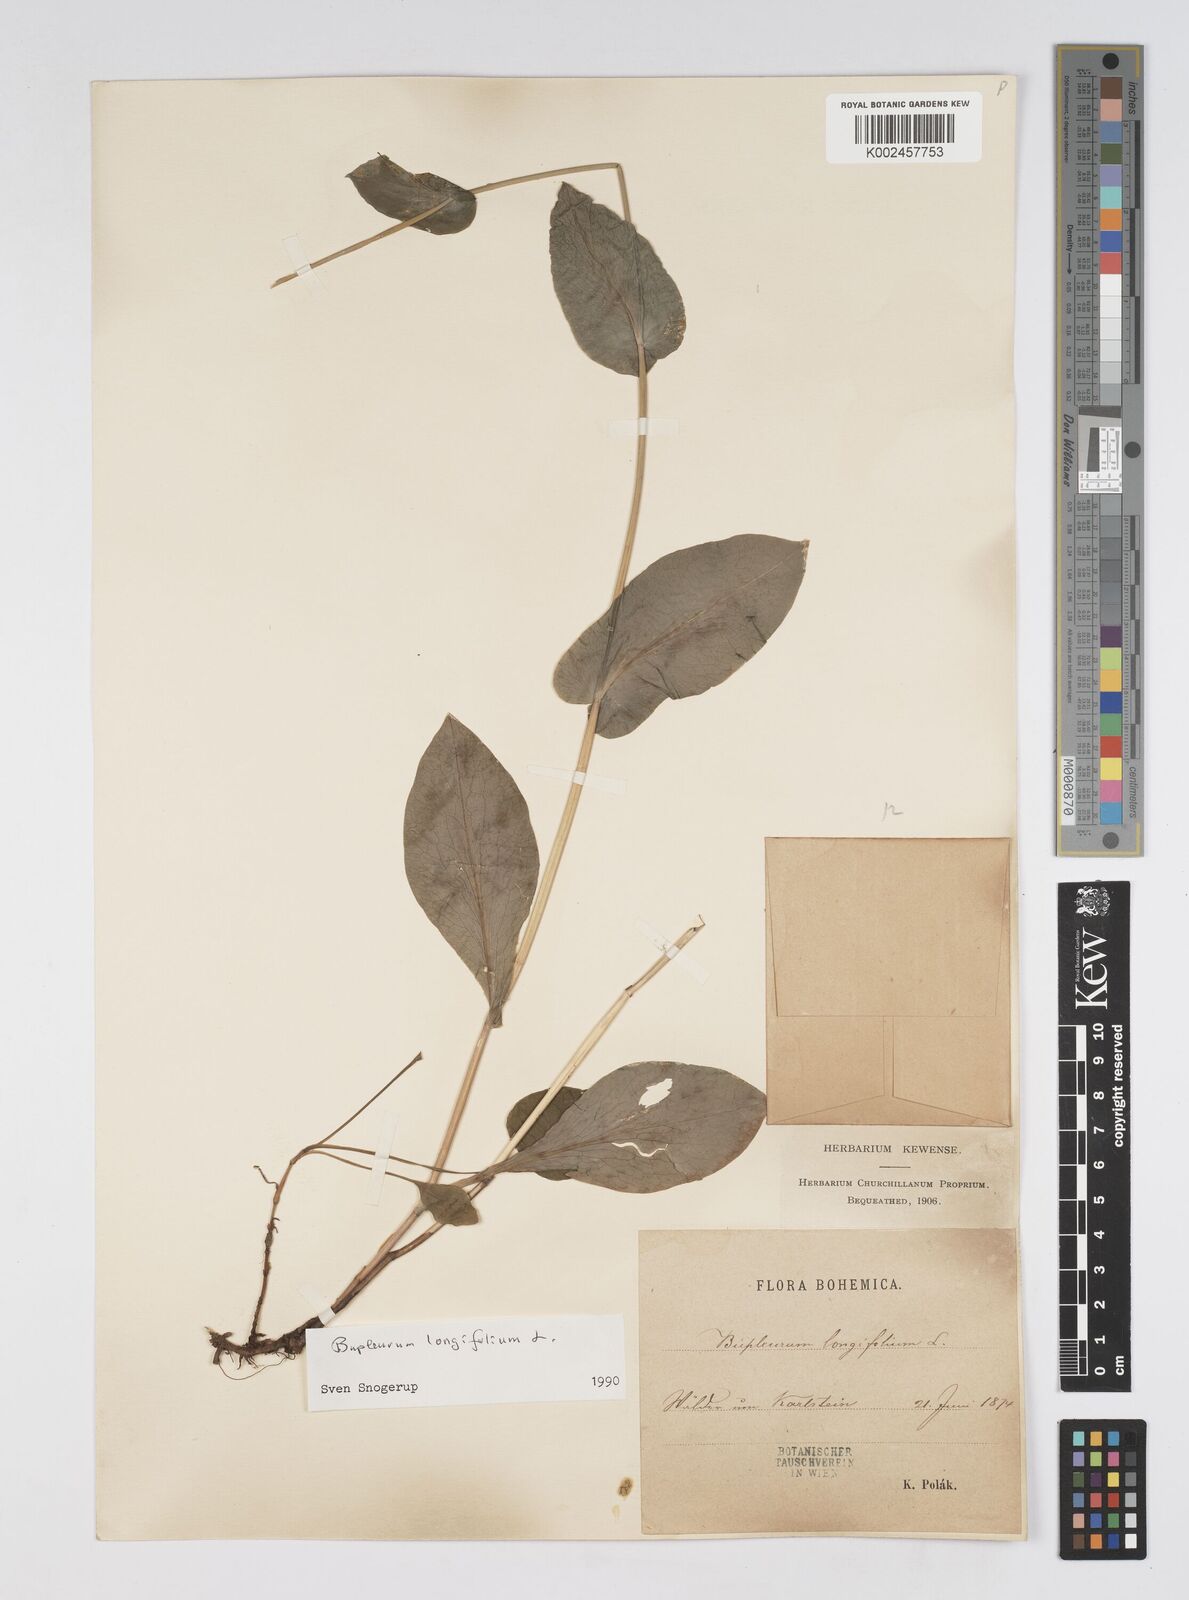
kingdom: Plantae
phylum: Tracheophyta
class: Magnoliopsida
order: Apiales
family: Apiaceae
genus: Bupleurum
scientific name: Bupleurum longifolium
